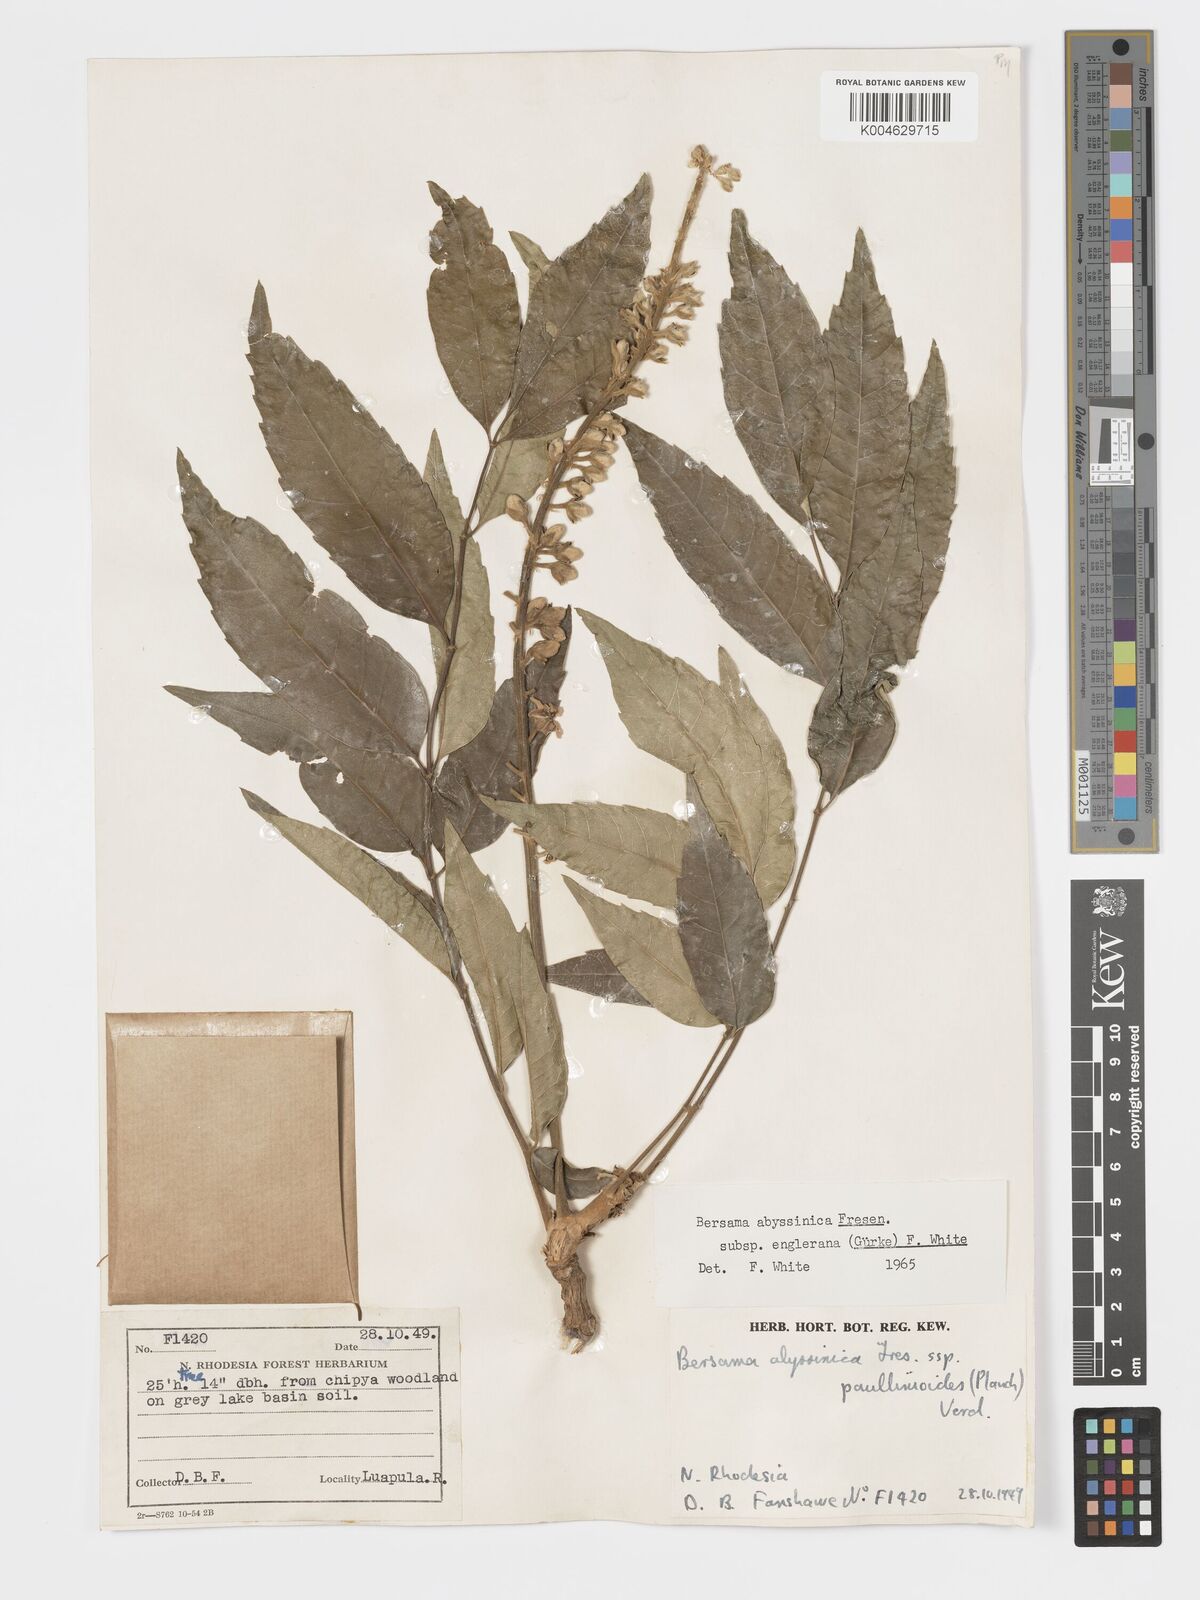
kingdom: Plantae
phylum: Tracheophyta
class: Magnoliopsida
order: Geraniales
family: Melianthaceae
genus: Bersama
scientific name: Bersama abyssinica
